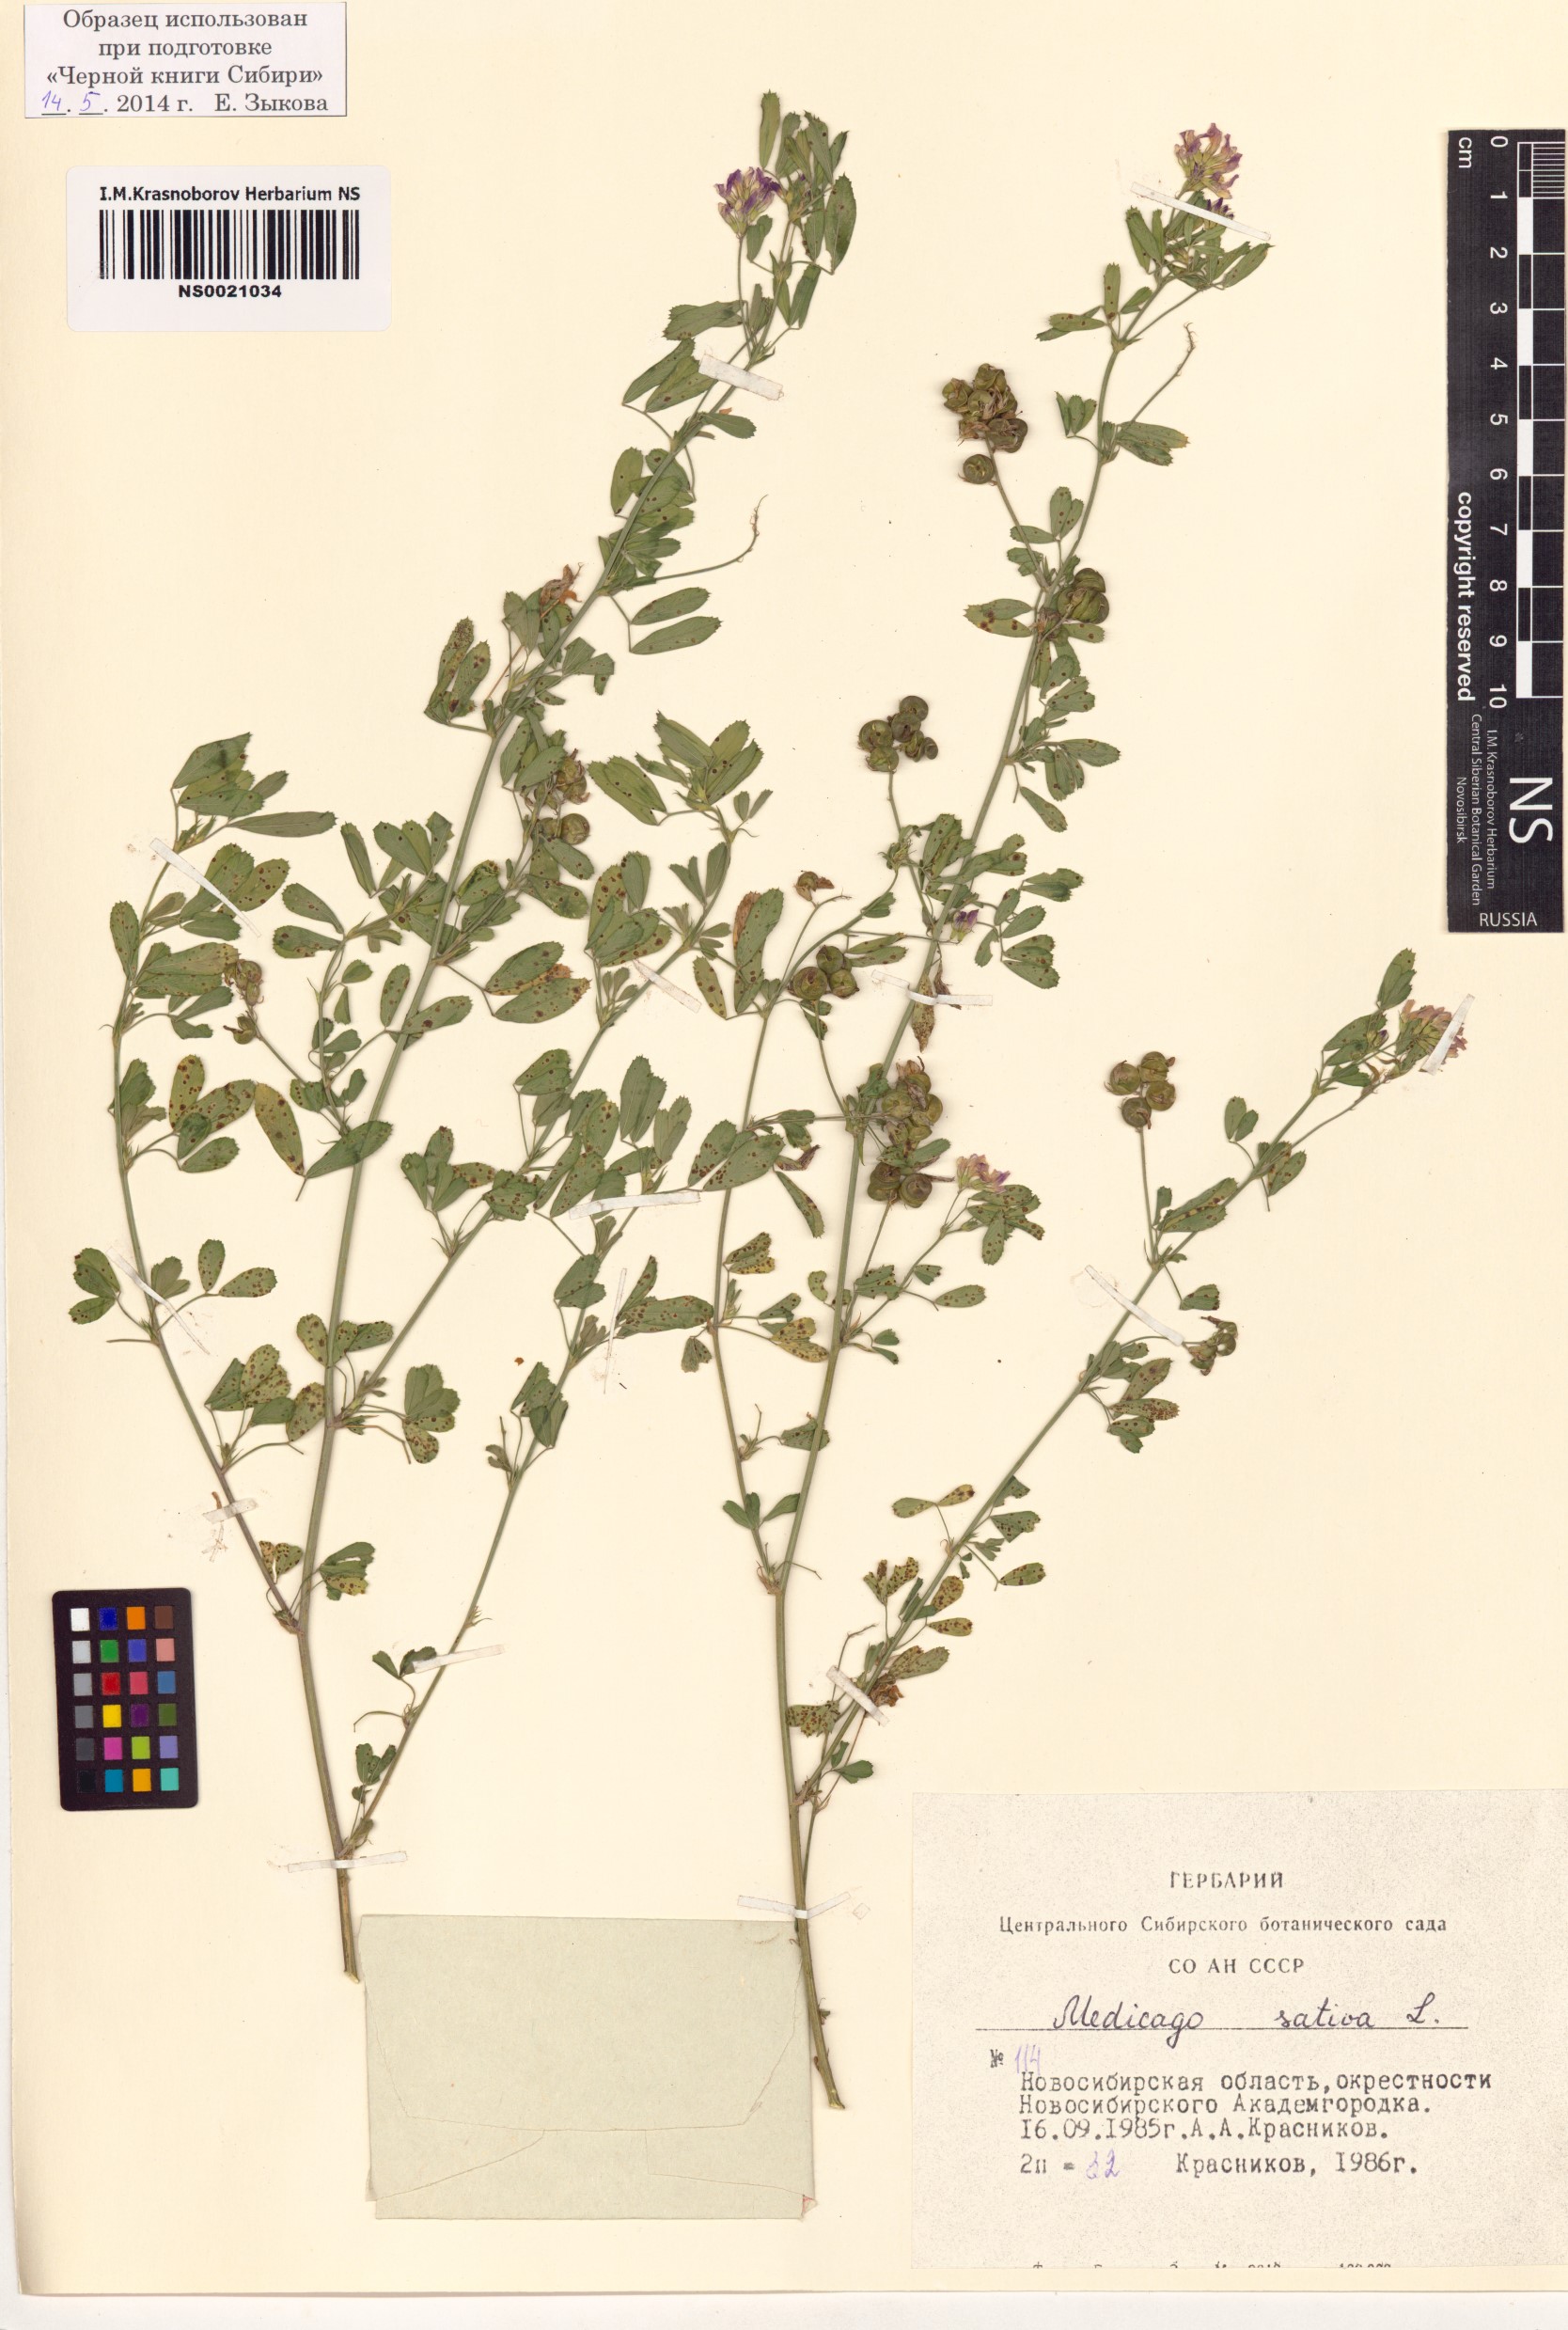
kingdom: Plantae
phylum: Tracheophyta
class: Magnoliopsida
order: Fabales
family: Fabaceae
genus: Medicago
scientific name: Medicago sativa
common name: Alfalfa
